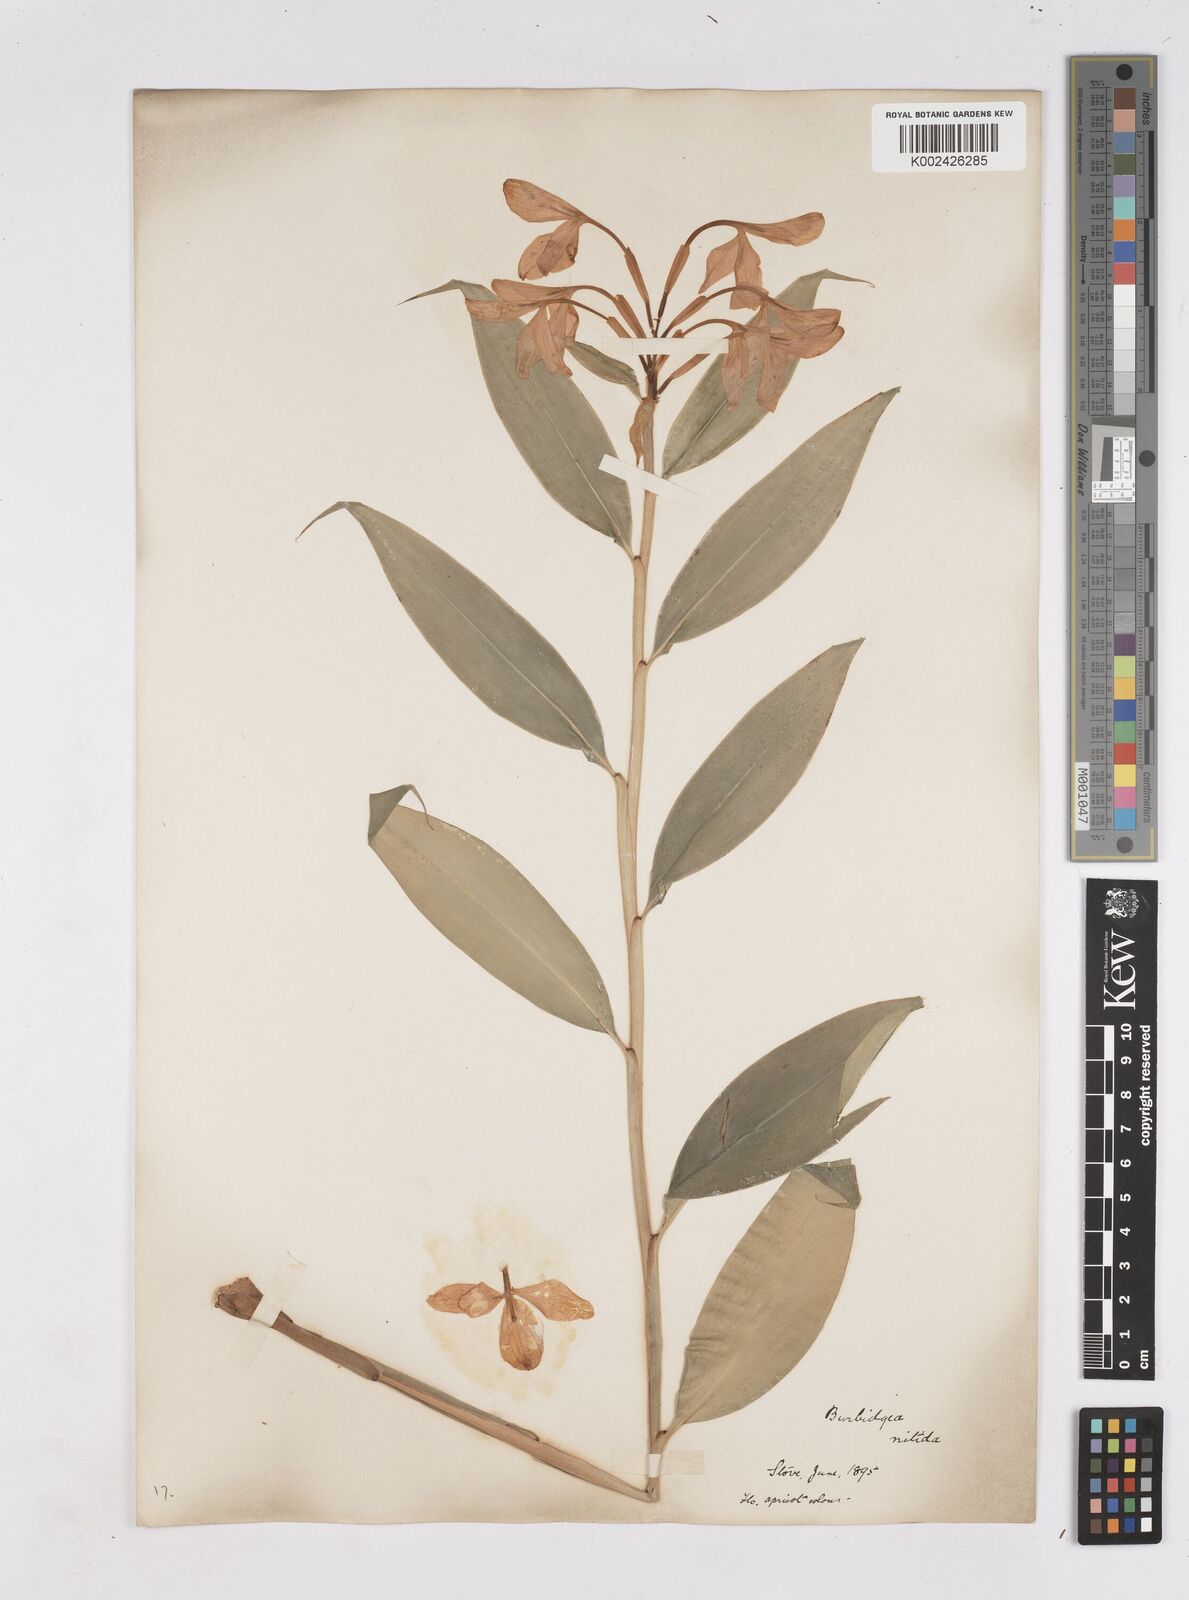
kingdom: Plantae
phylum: Tracheophyta
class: Liliopsida
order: Zingiberales
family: Zingiberaceae
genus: Burbidgea
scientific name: Burbidgea nitida
